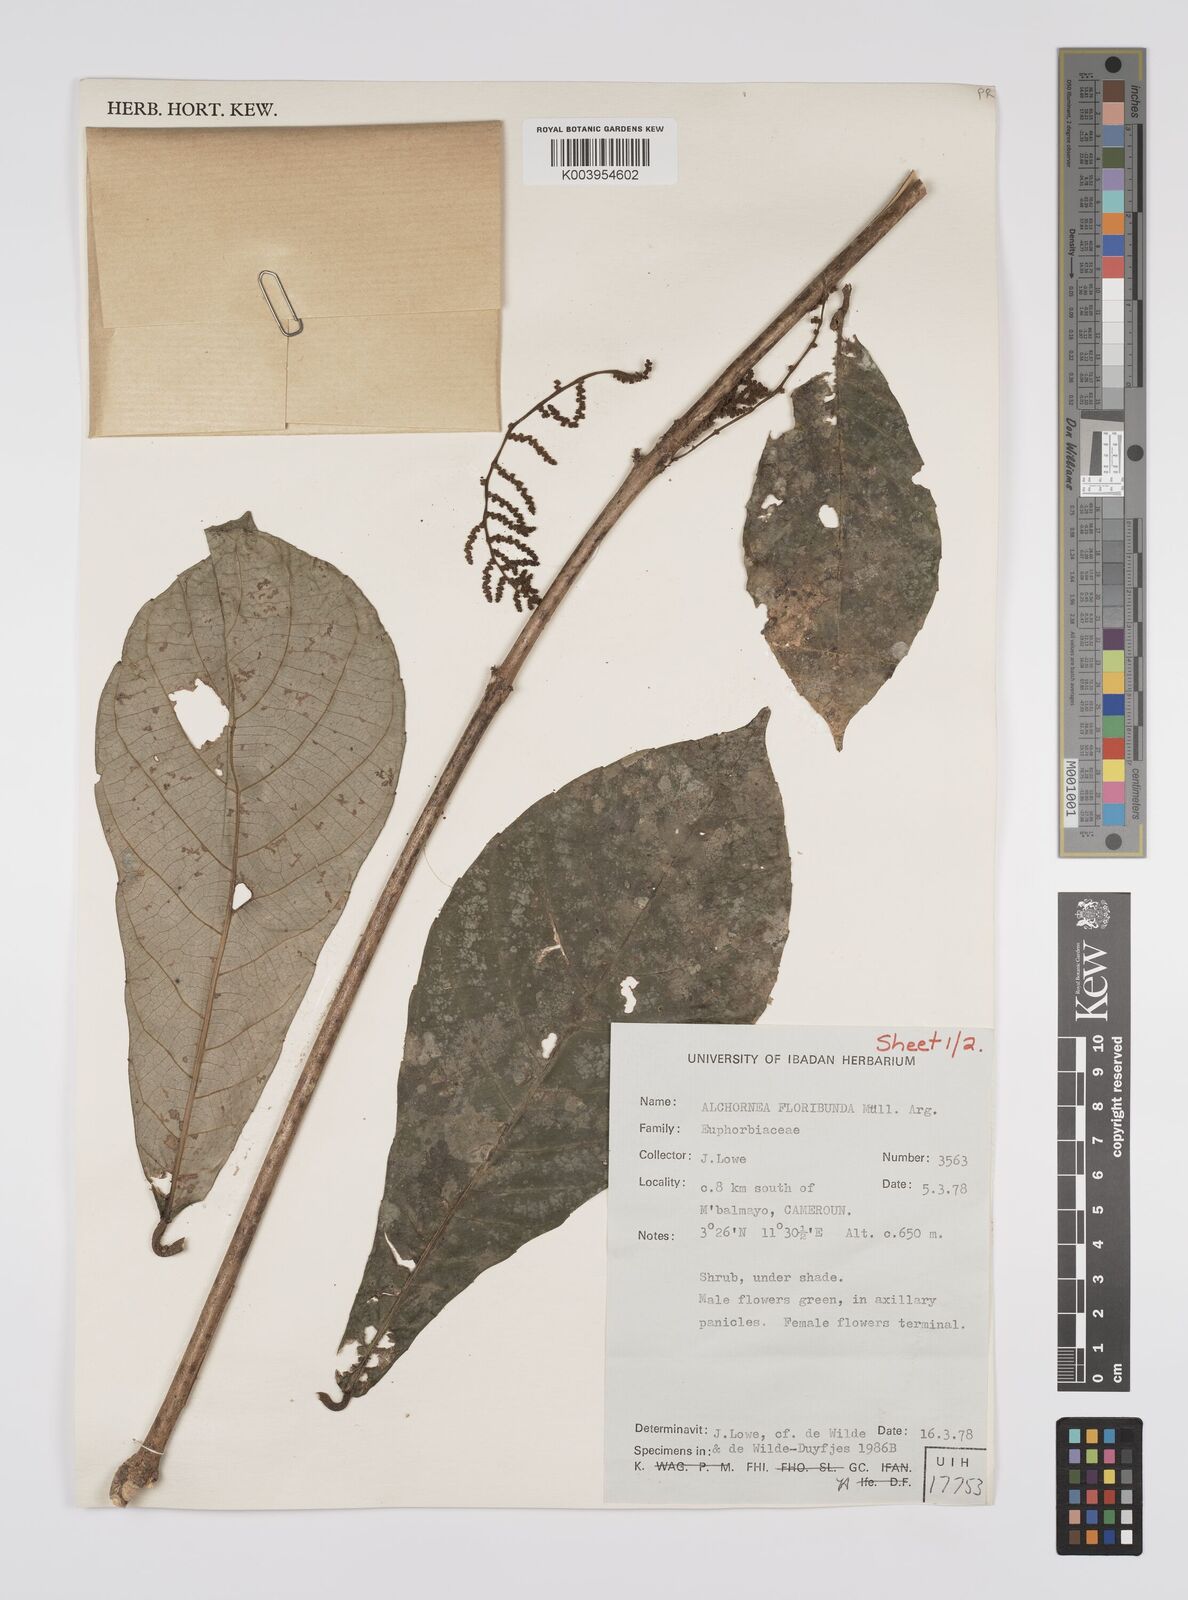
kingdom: Plantae
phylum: Tracheophyta
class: Magnoliopsida
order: Malpighiales
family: Euphorbiaceae
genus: Alchornea
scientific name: Alchornea floribunda
